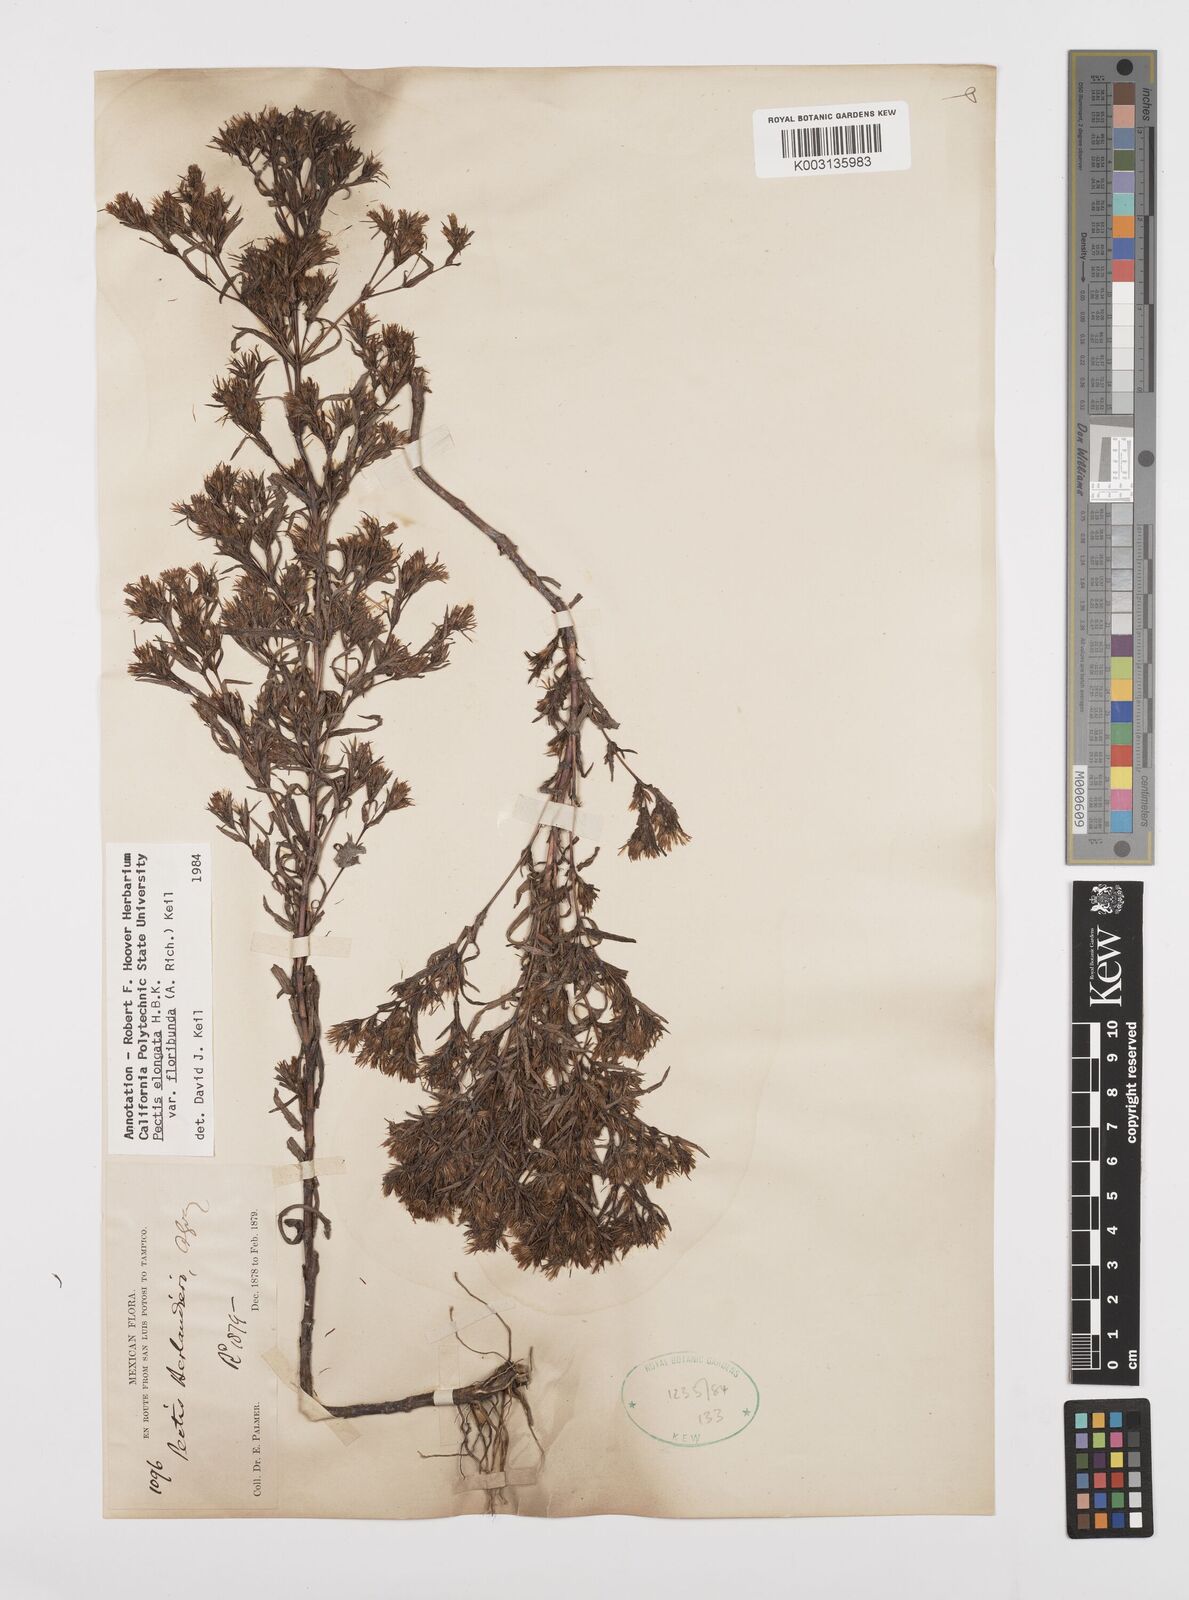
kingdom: Plantae
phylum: Tracheophyta
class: Magnoliopsida
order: Asterales
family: Asteraceae
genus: Pectis
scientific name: Pectis elongata
